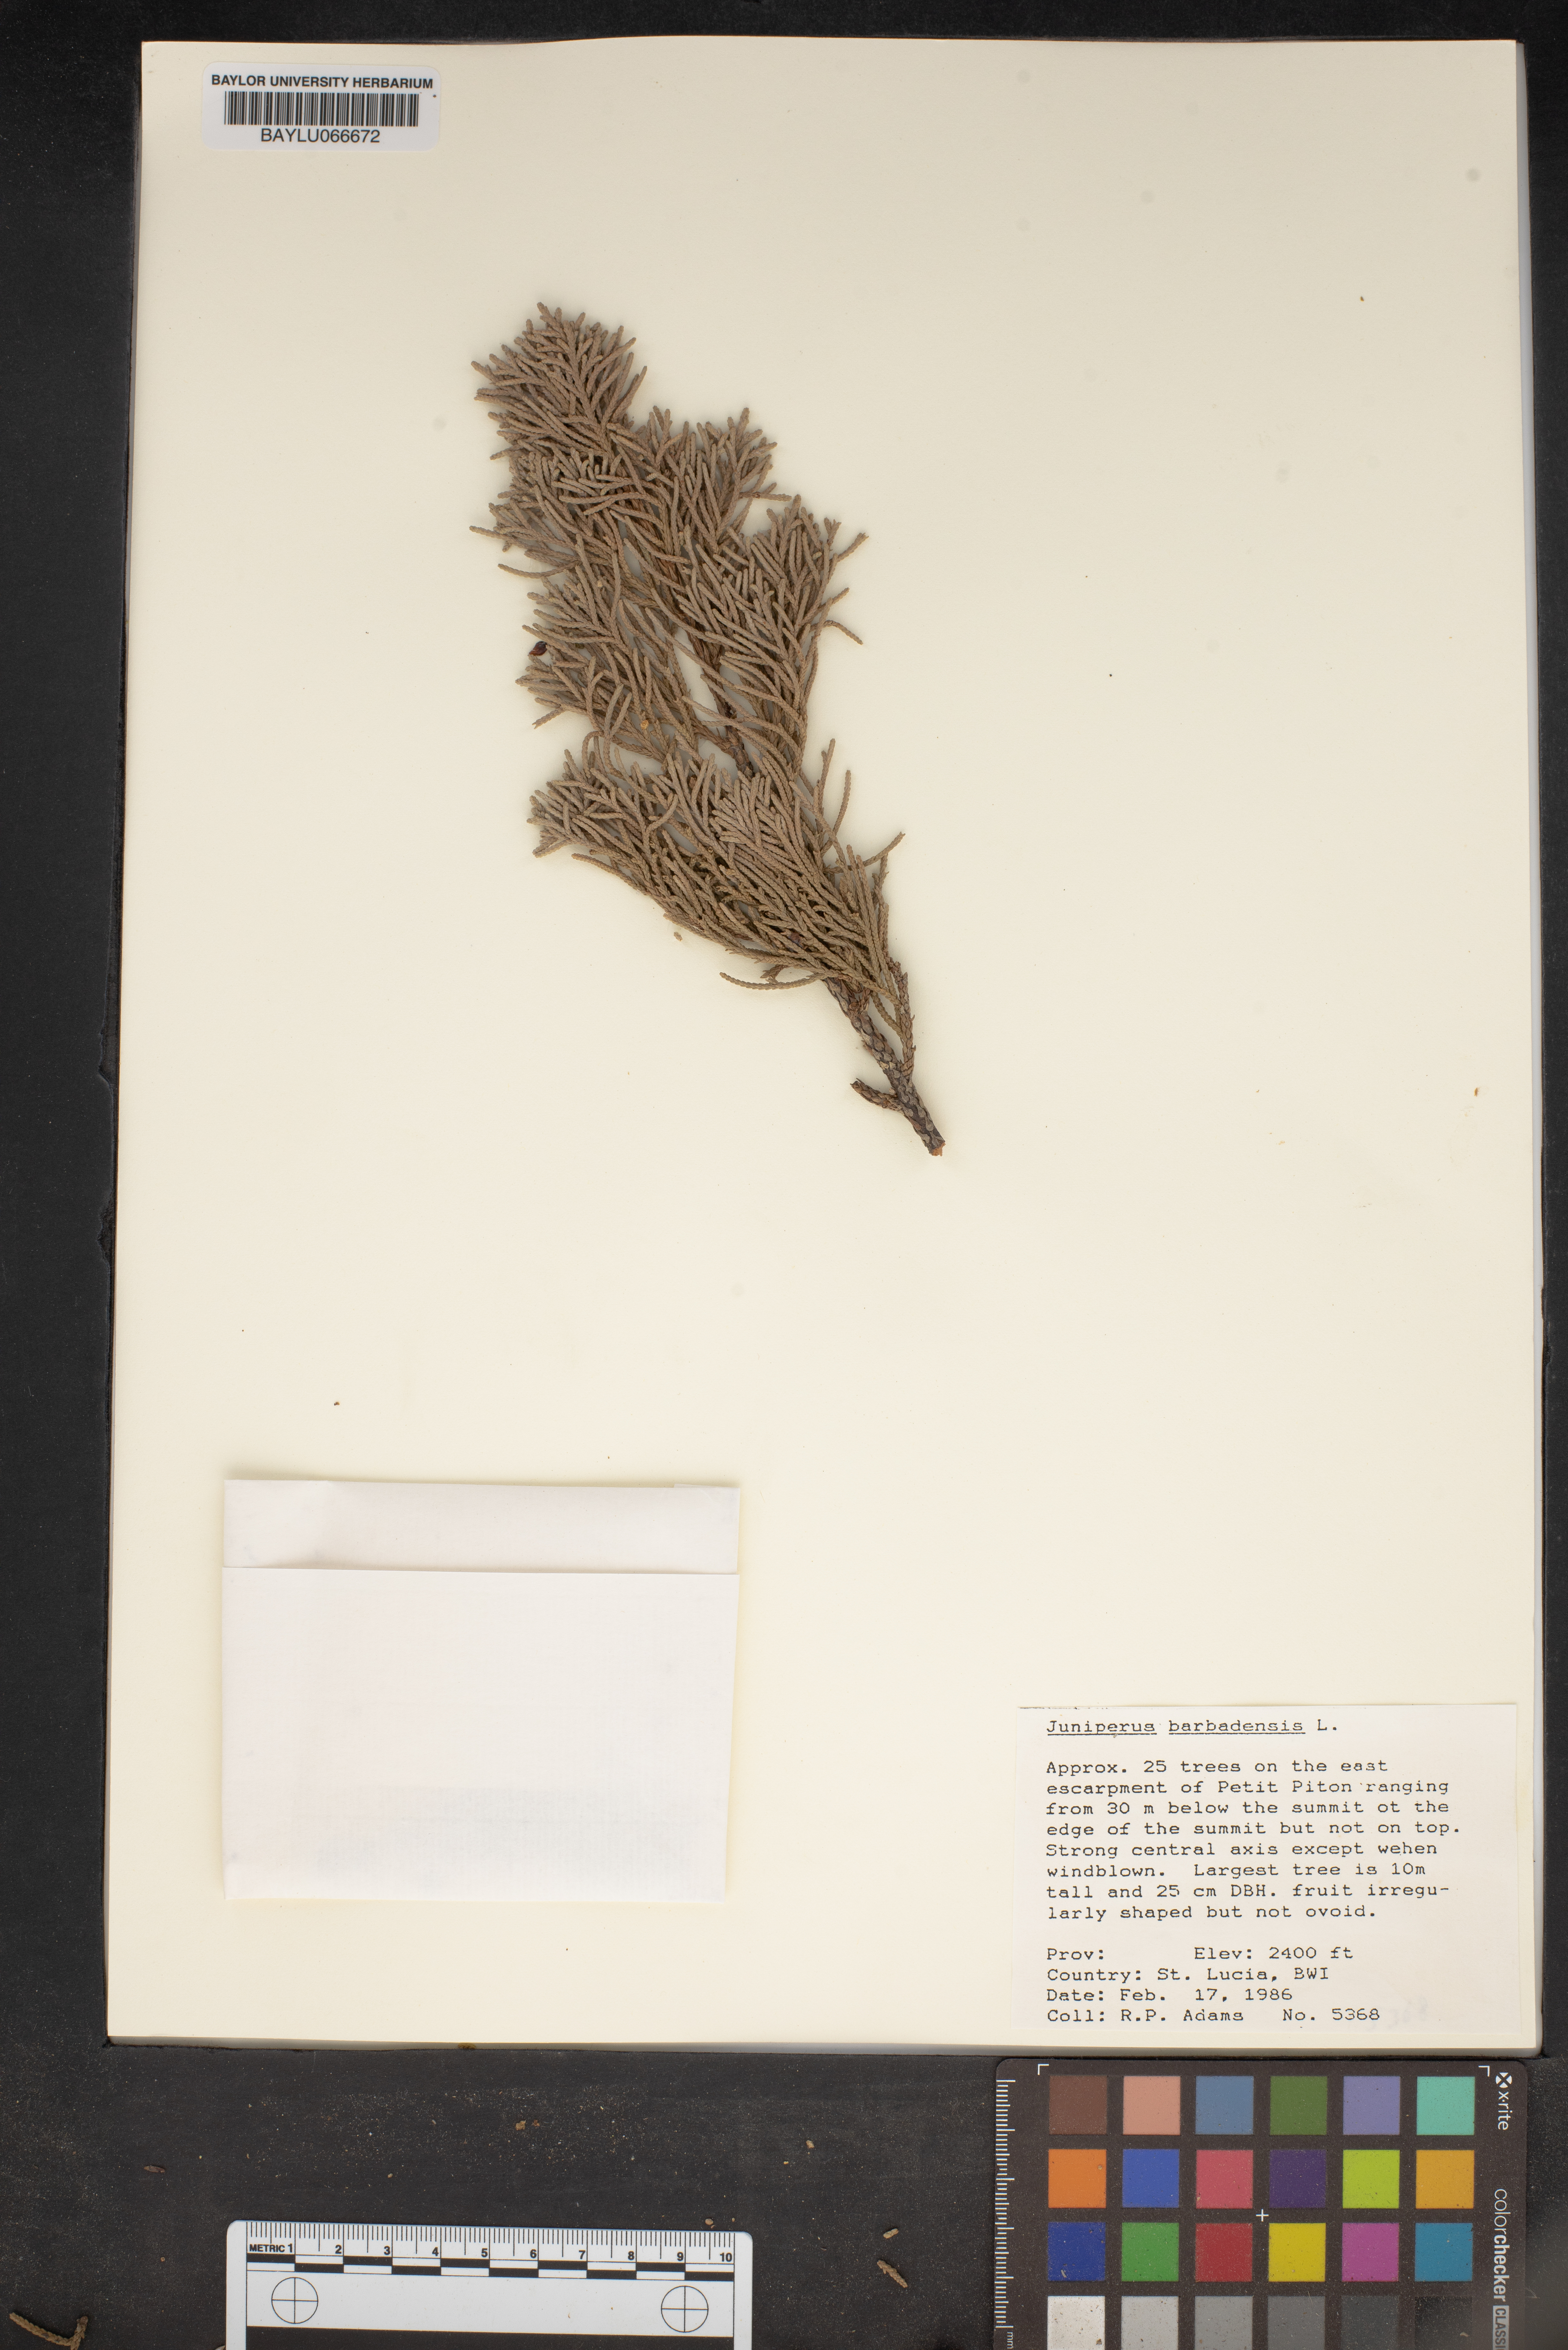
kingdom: Plantae
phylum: Tracheophyta
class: Pinopsida
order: Pinales
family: Cupressaceae
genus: Juniperus
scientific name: Juniperus barbadensis
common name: West indies juniper
